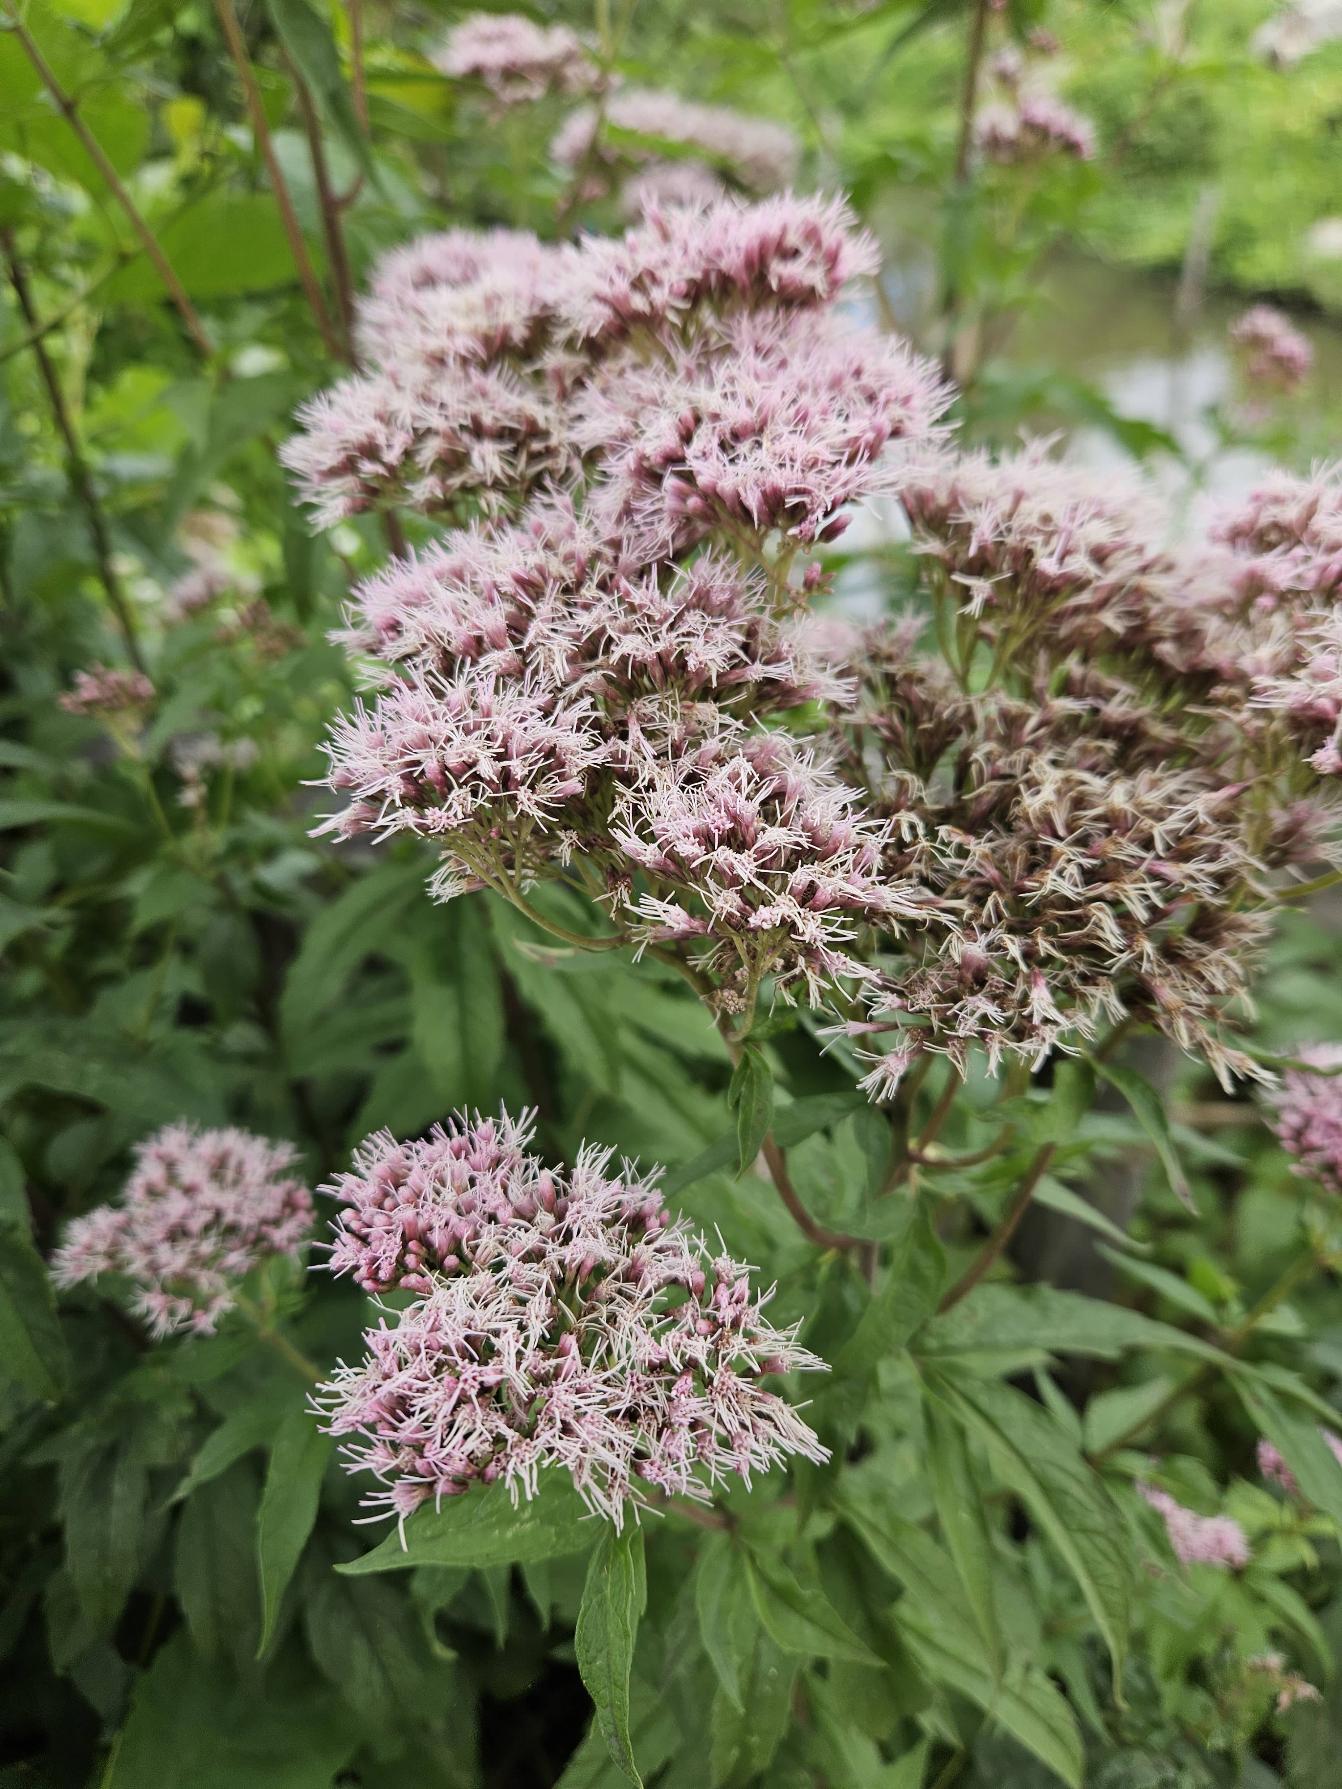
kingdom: Plantae
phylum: Tracheophyta
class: Magnoliopsida
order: Asterales
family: Asteraceae
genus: Eupatorium
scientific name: Eupatorium cannabinum
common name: Hjortetrøst
